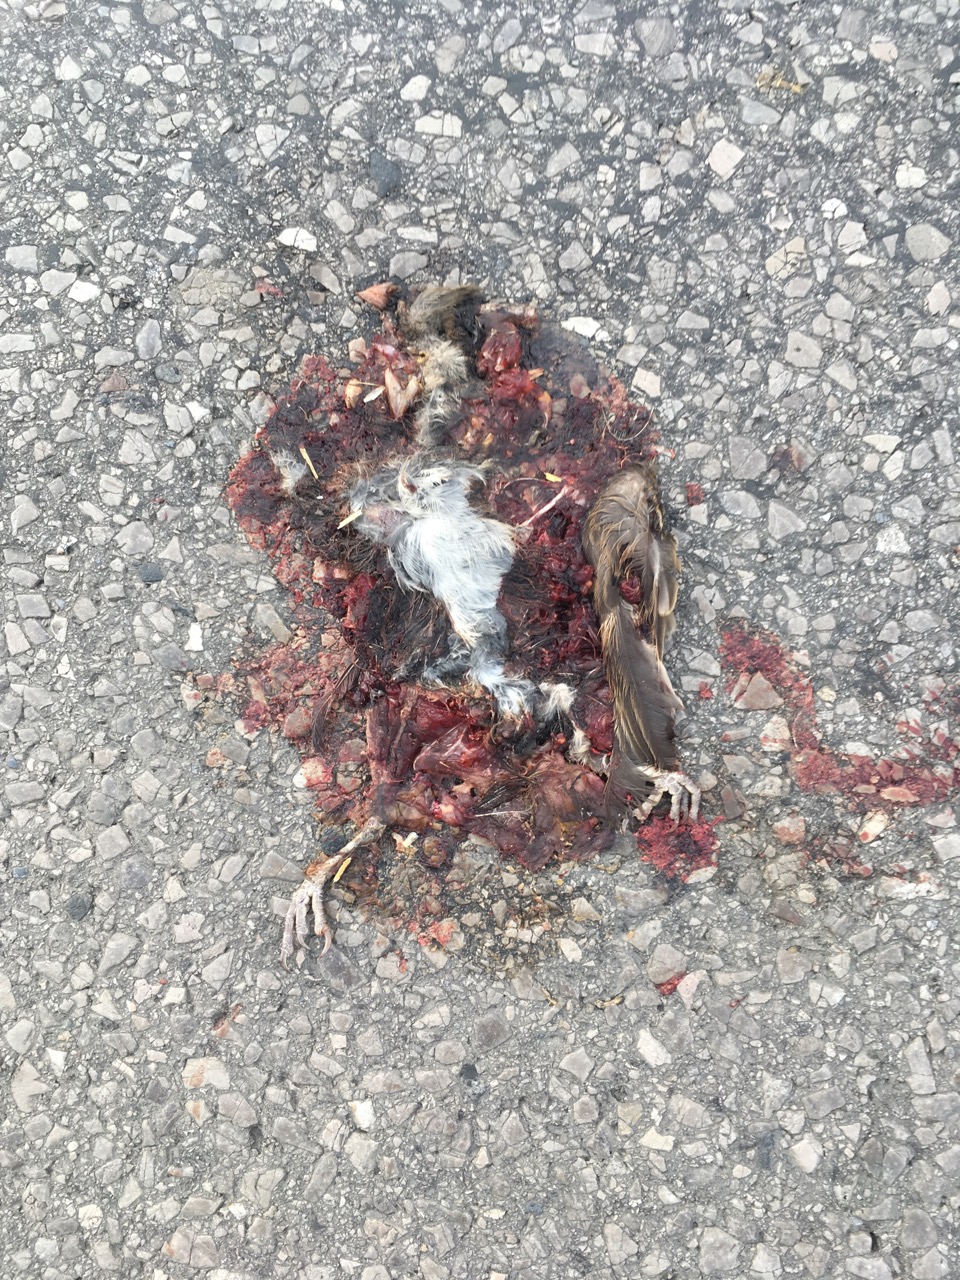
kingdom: Animalia
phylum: Chordata
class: Aves
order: Passeriformes
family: Passeridae
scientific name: Passeridae
